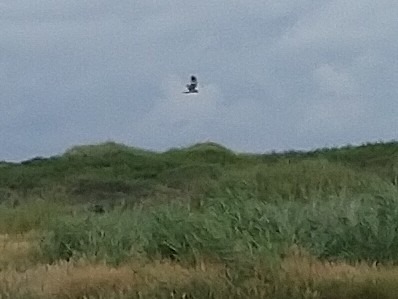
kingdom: Animalia
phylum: Chordata
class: Aves
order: Accipitriformes
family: Accipitridae
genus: Circus
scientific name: Circus aeruginosus
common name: Rørhøg
